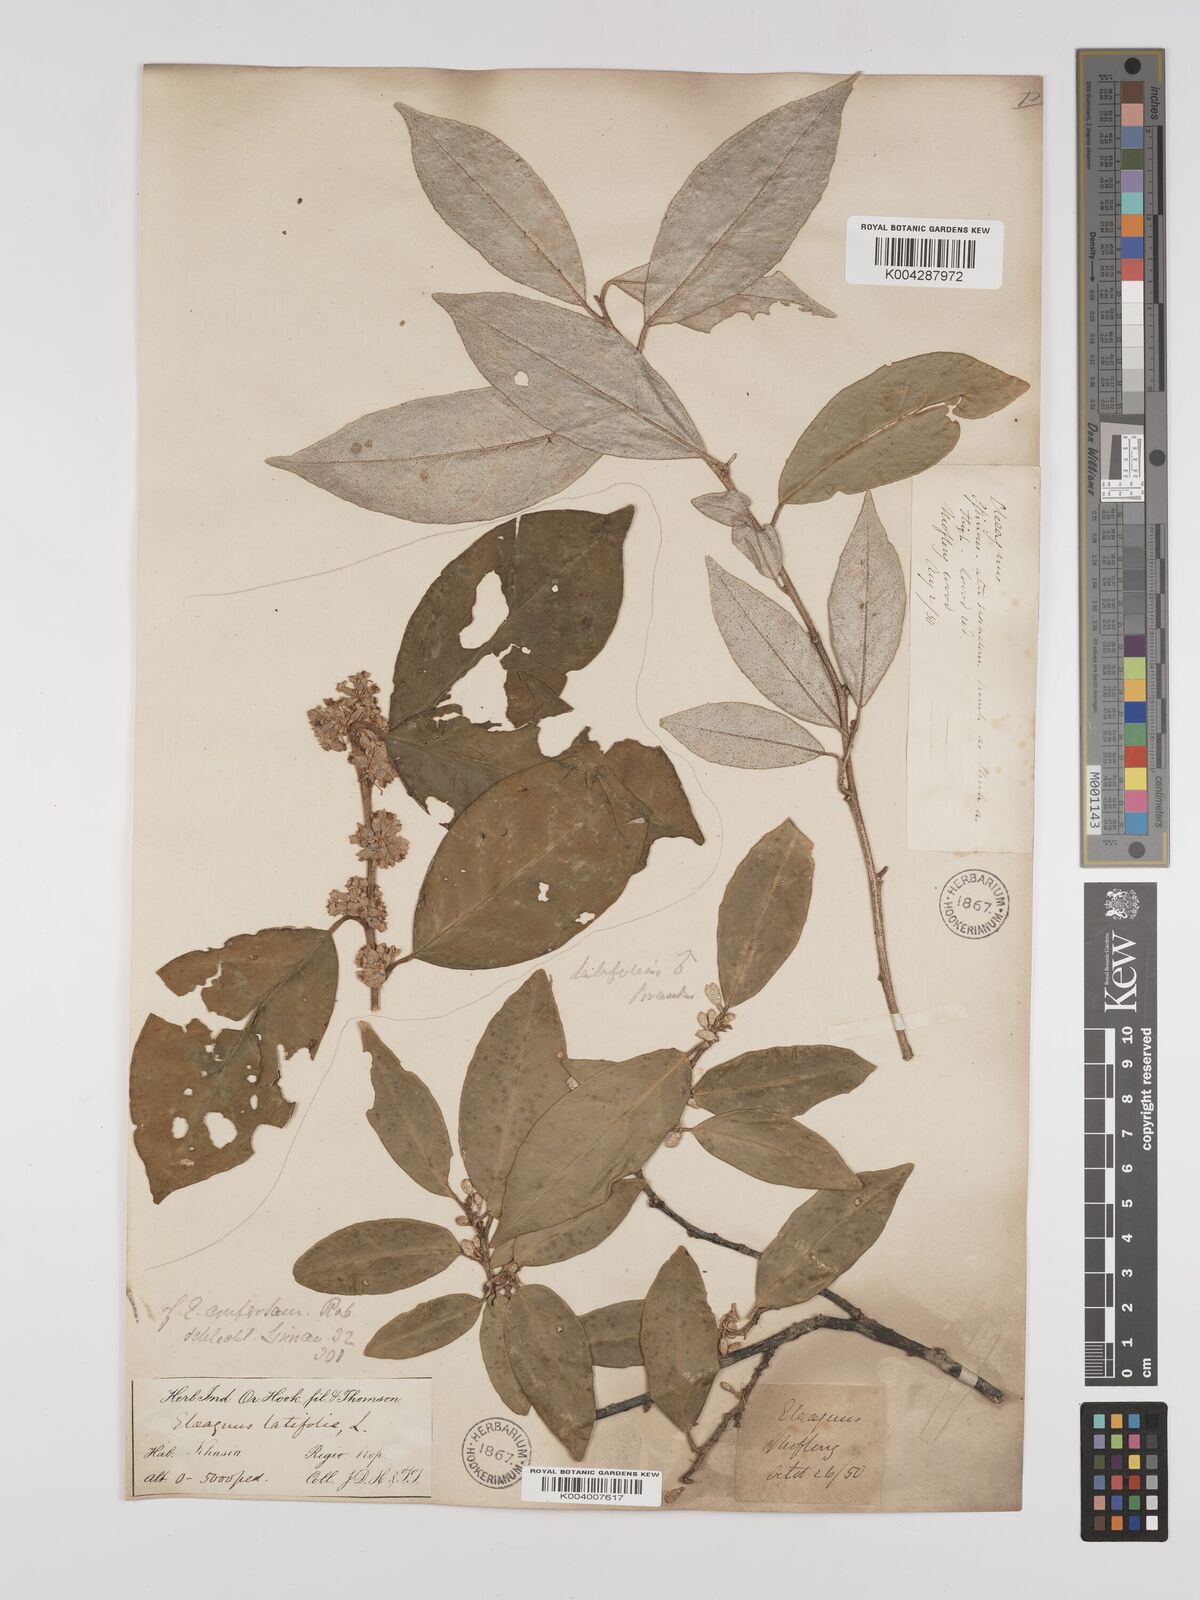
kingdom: Plantae
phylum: Tracheophyta
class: Magnoliopsida
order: Rosales
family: Elaeagnaceae
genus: Elaeagnus
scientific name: Elaeagnus latifolia
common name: Oleaster
